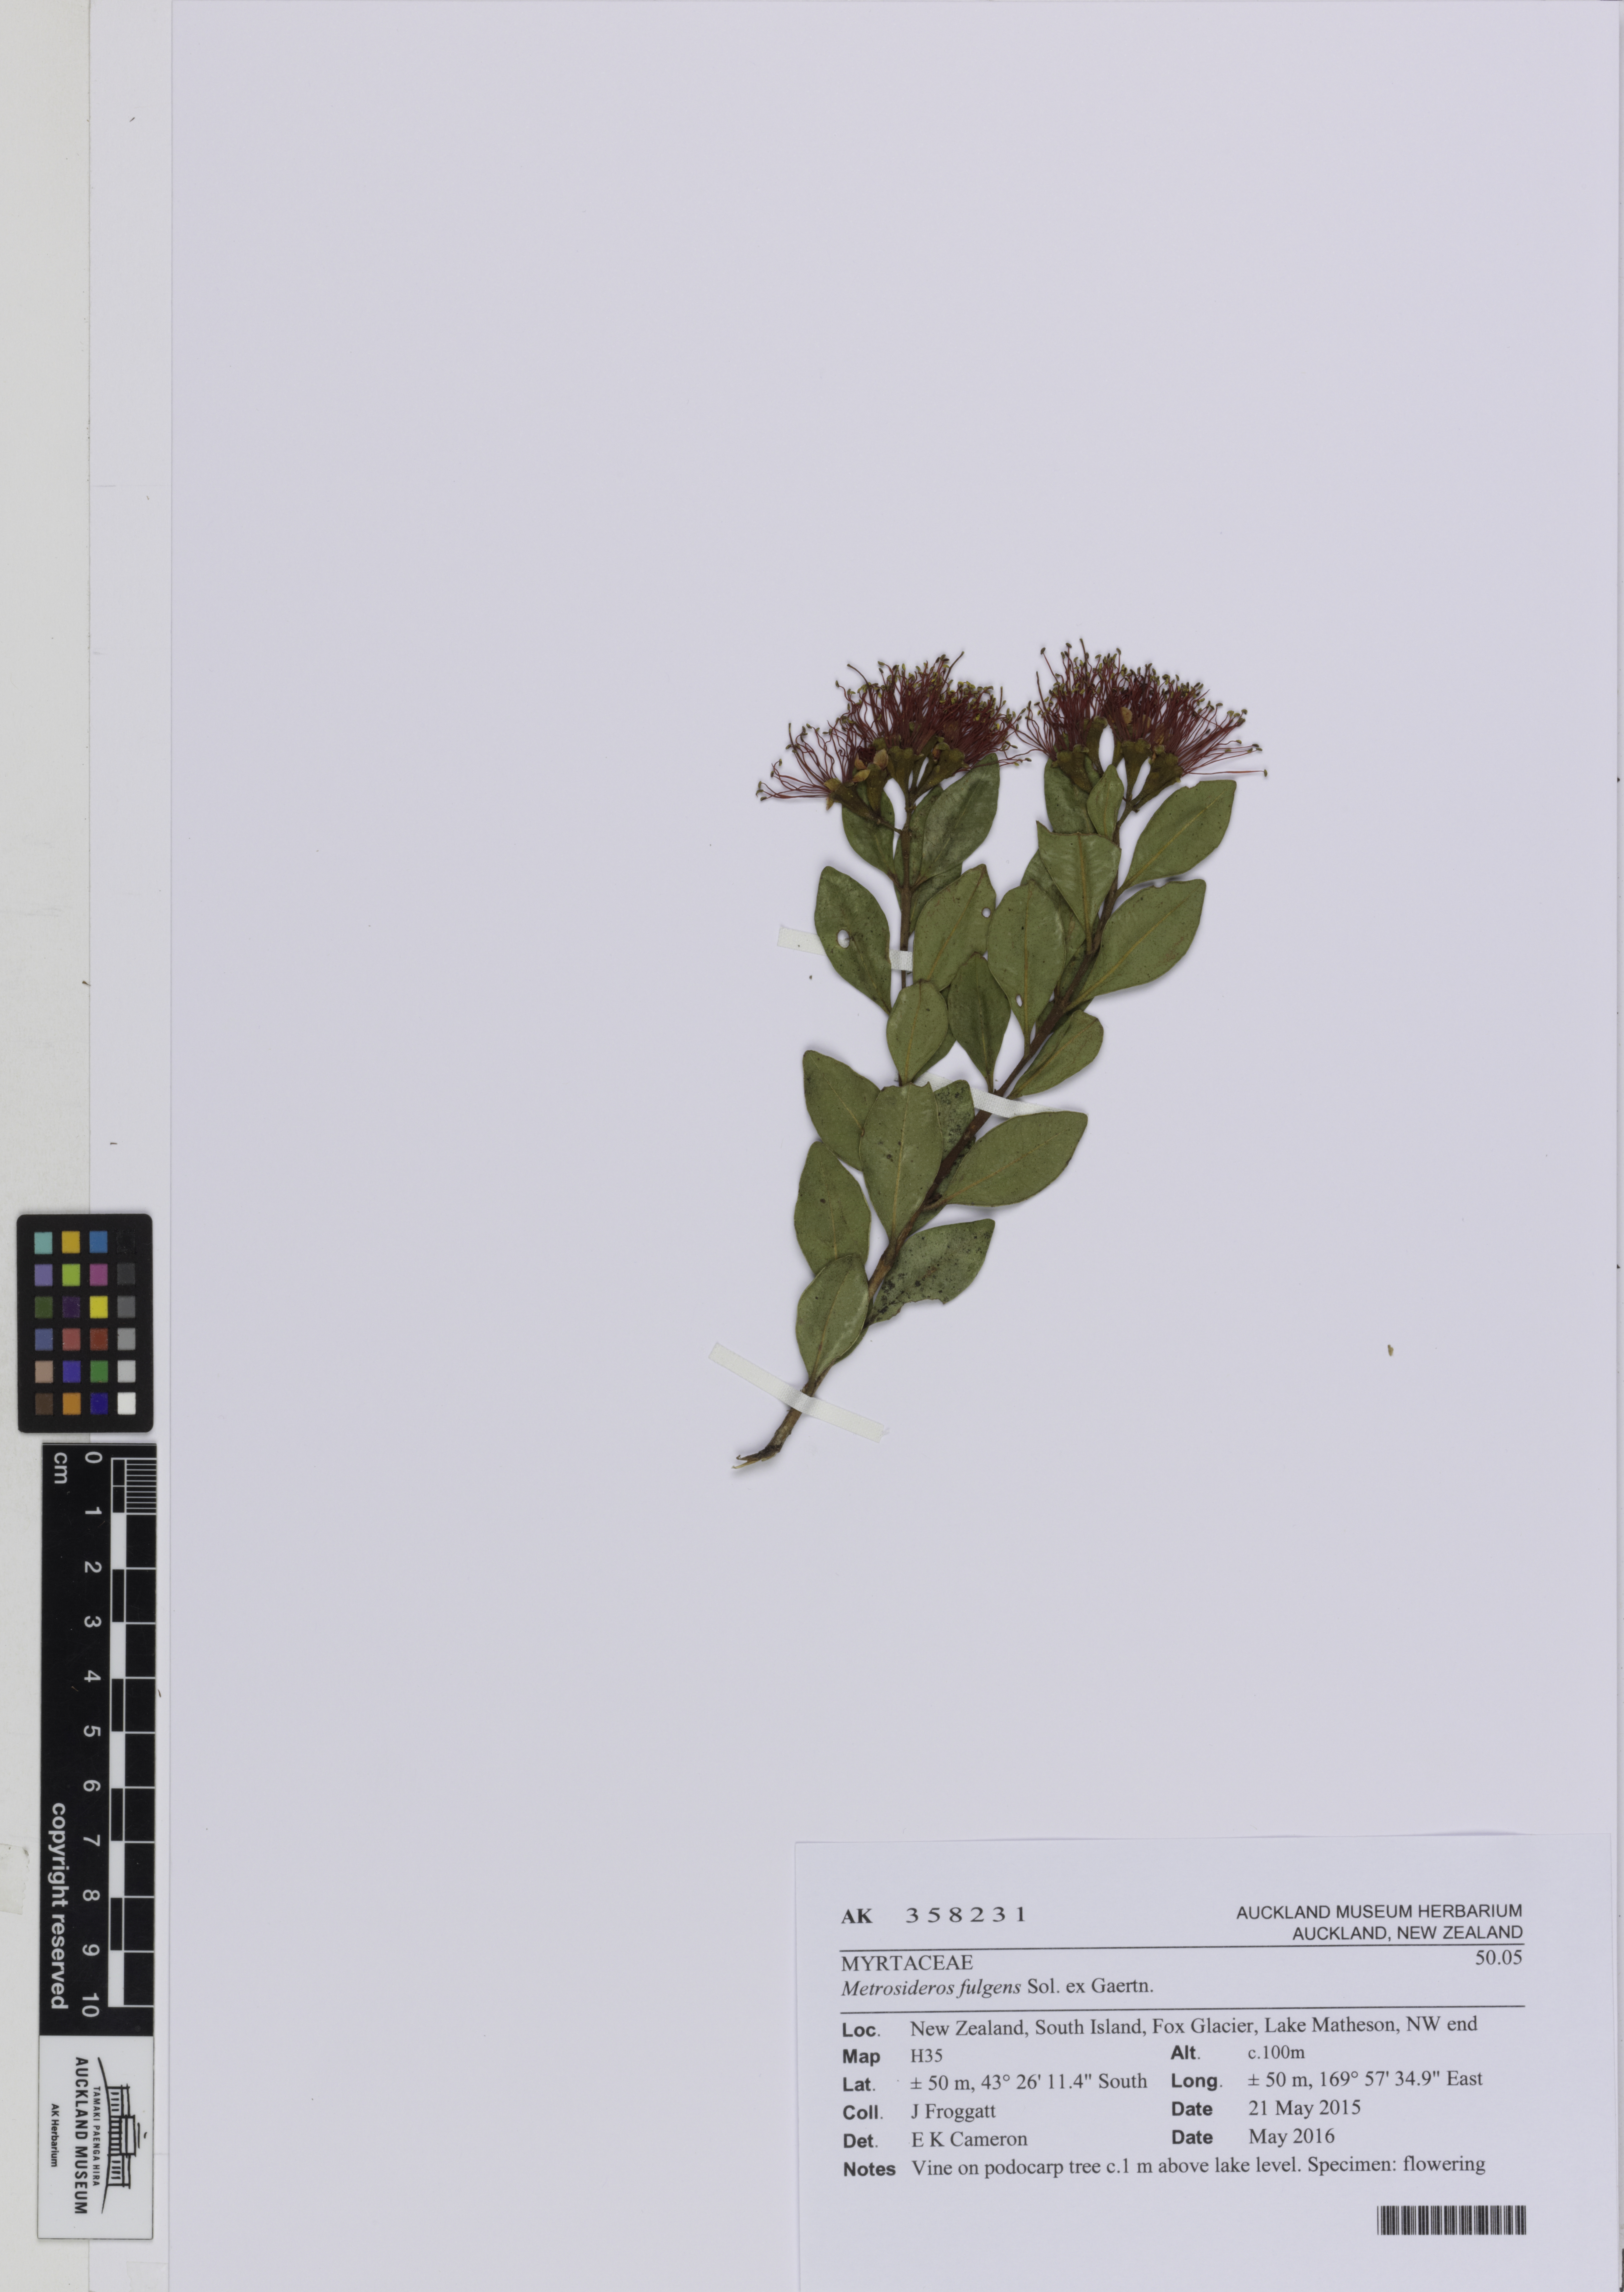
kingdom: Plantae
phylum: Tracheophyta
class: Magnoliopsida
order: Myrtales
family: Myrtaceae
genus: Metrosideros
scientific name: Metrosideros fulgens
